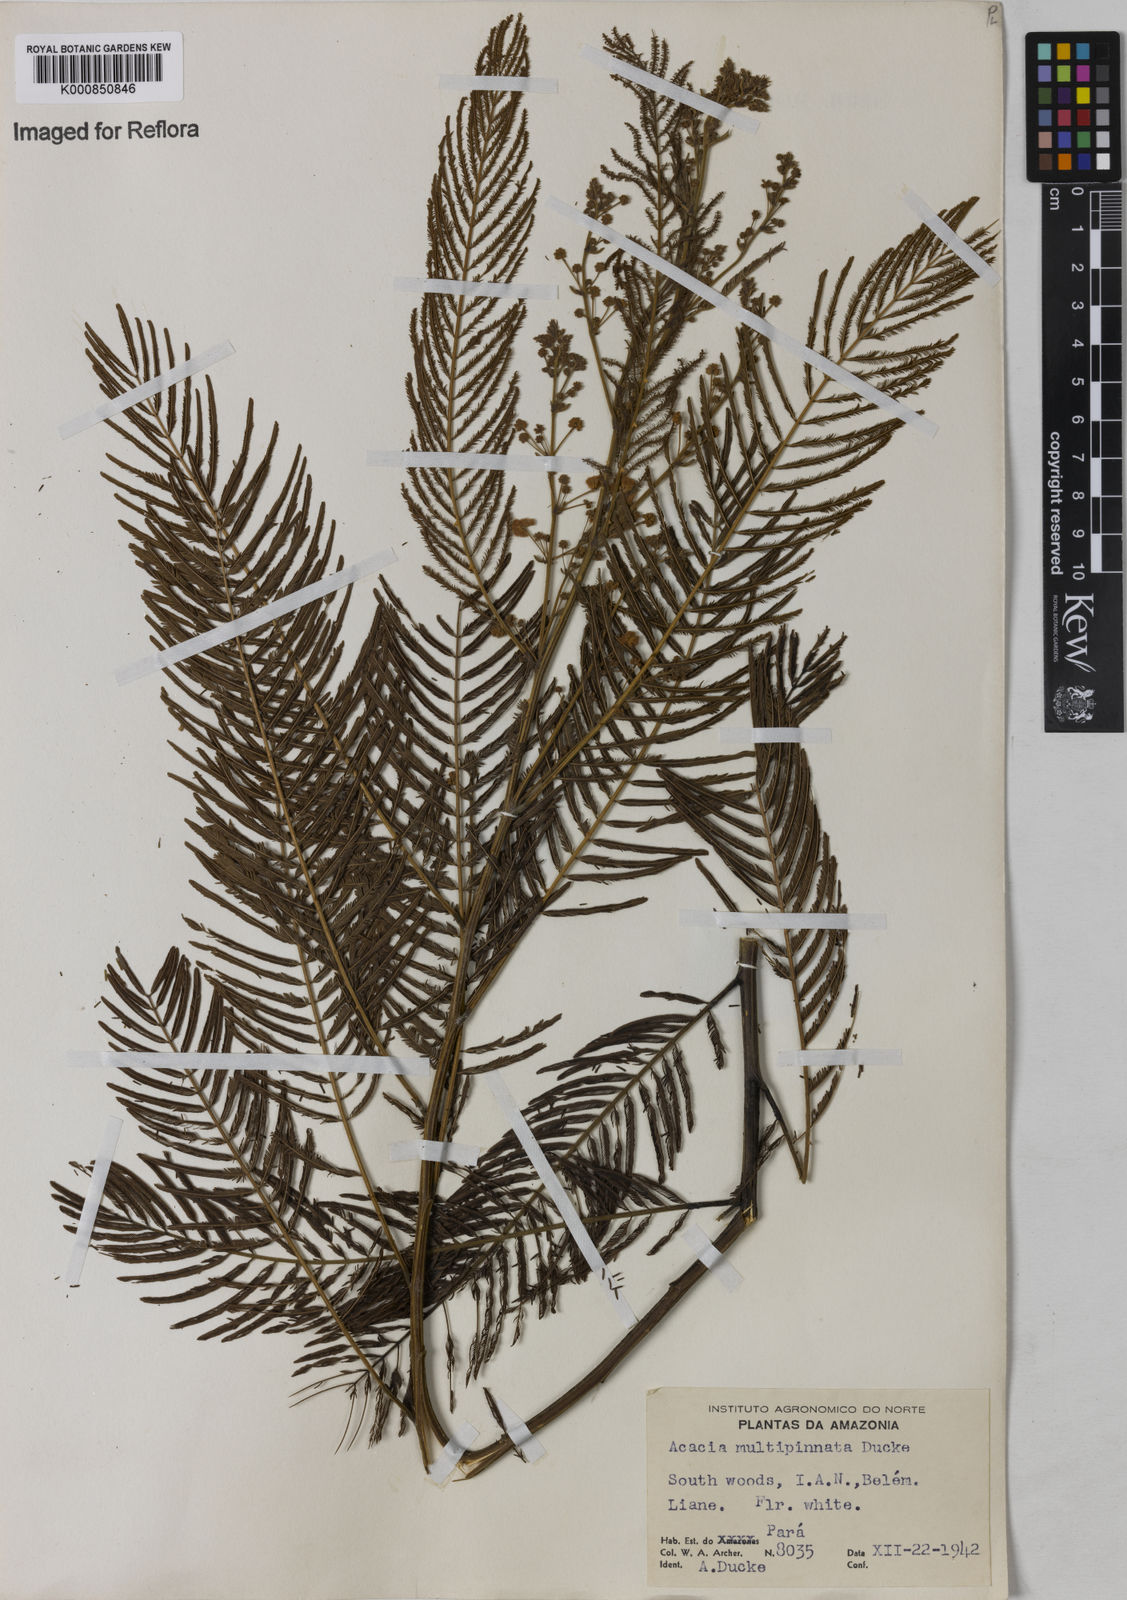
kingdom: Plantae
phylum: Tracheophyta
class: Magnoliopsida
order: Fabales
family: Fabaceae
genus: Senegalia
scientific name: Senegalia paniculata
